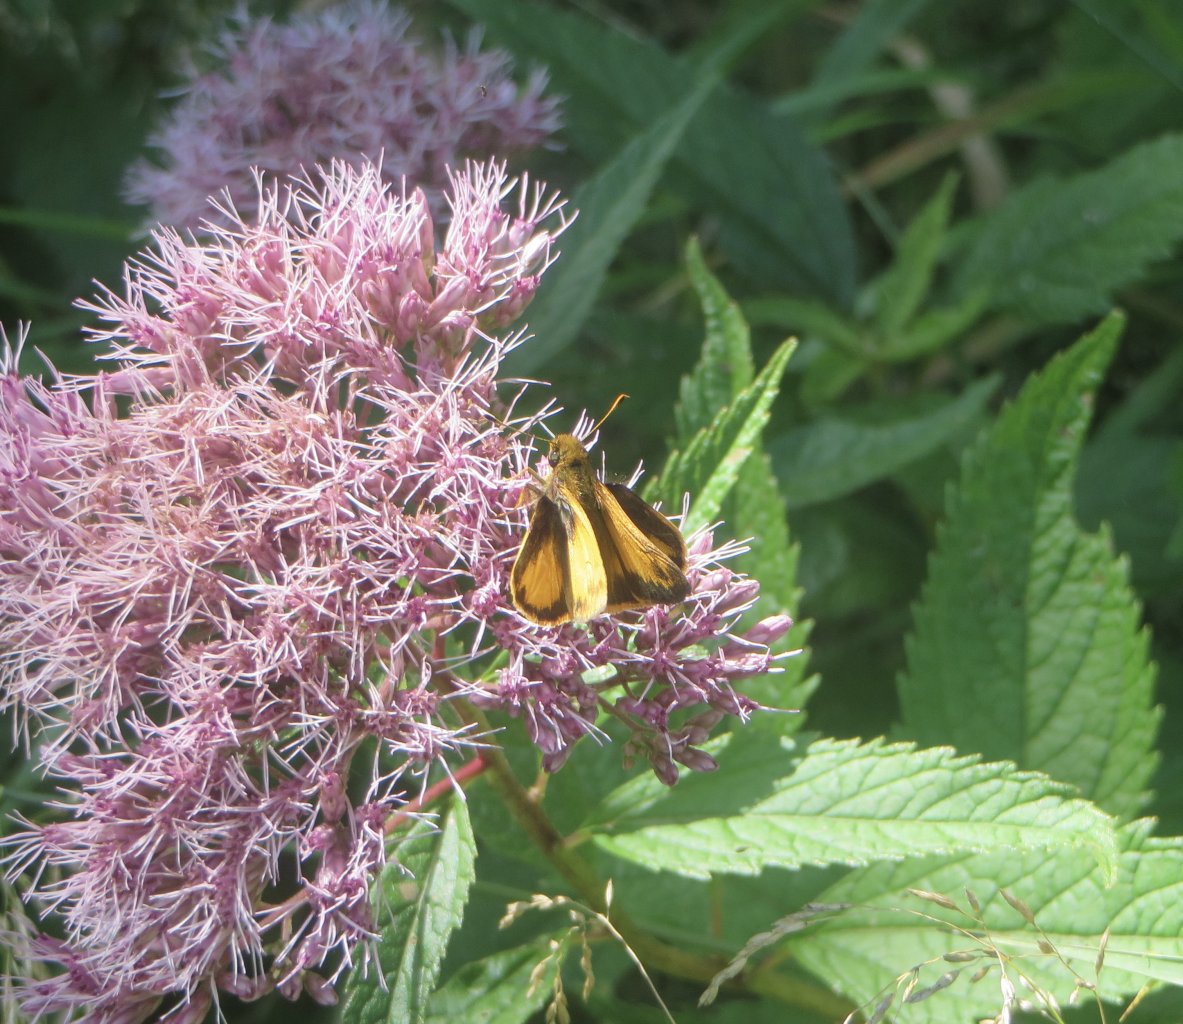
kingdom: Animalia
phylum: Arthropoda
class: Insecta
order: Lepidoptera
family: Hesperiidae
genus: Lon
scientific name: Lon zabulon
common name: Zabulon Skipper
